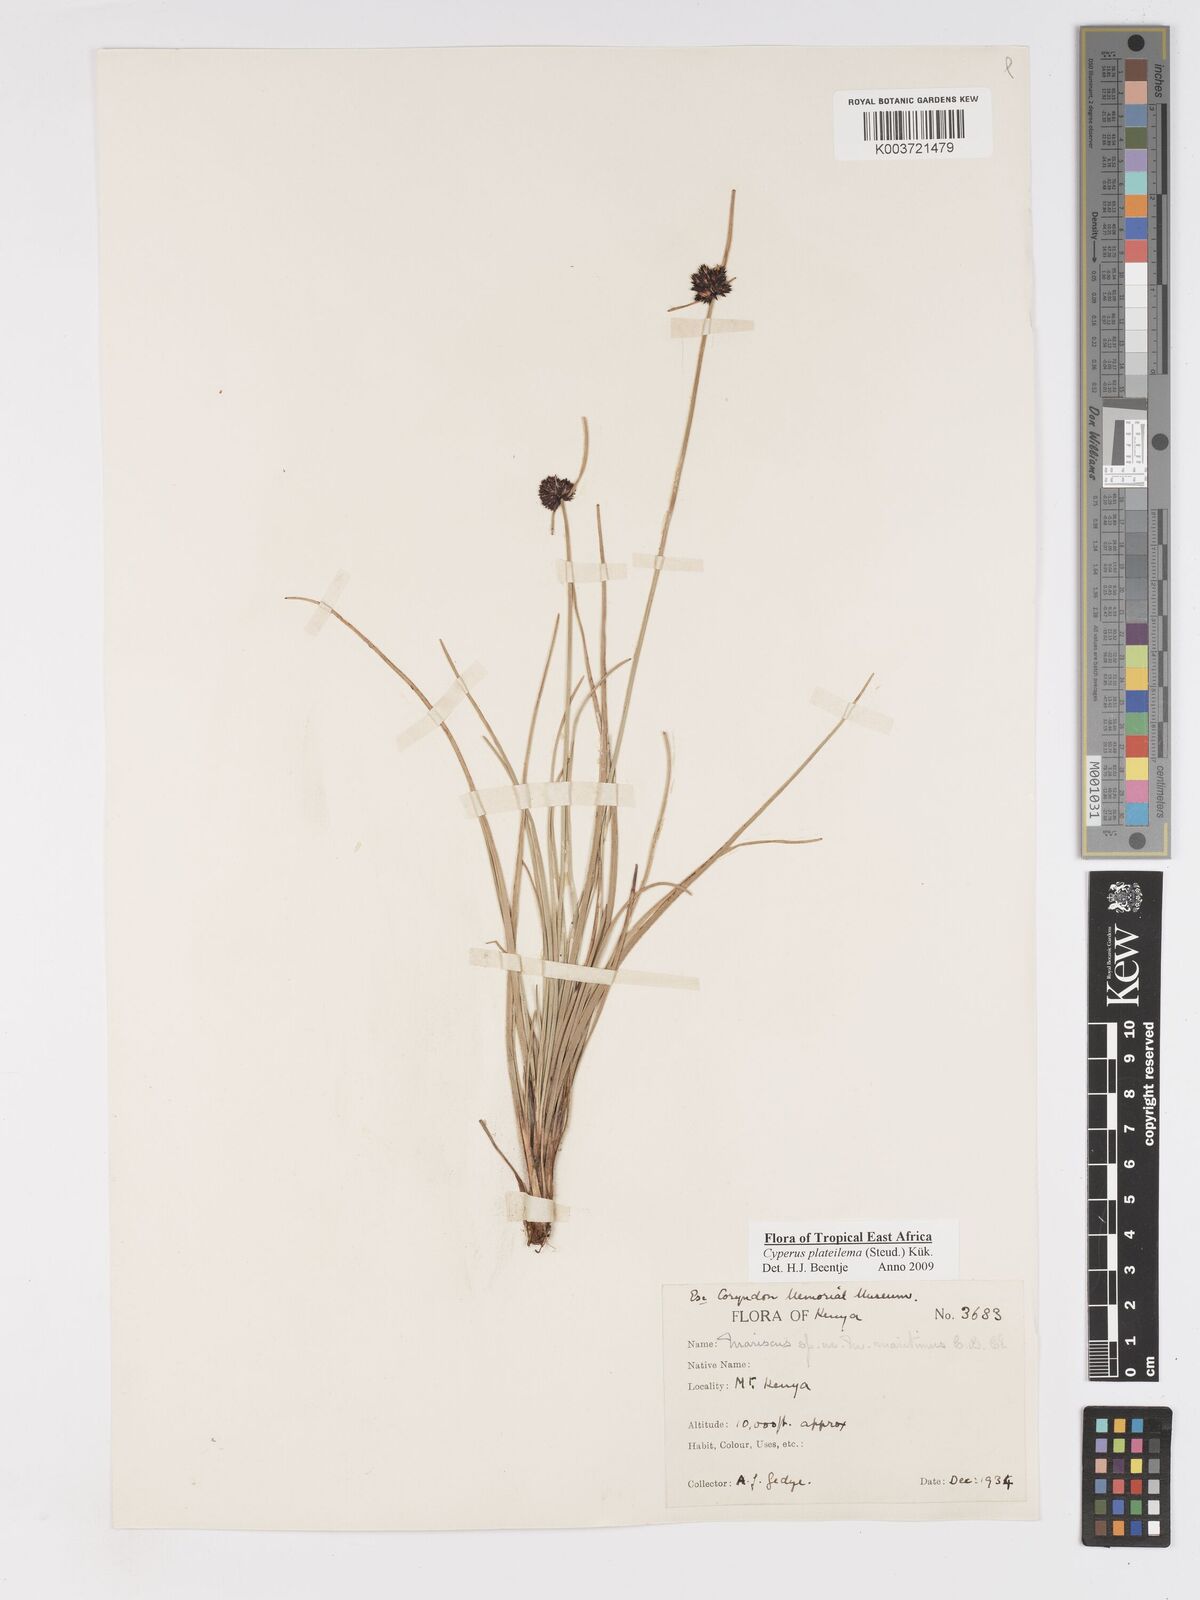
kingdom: Plantae
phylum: Tracheophyta
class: Liliopsida
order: Poales
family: Cyperaceae
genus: Cyperus
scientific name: Cyperus plateilema
